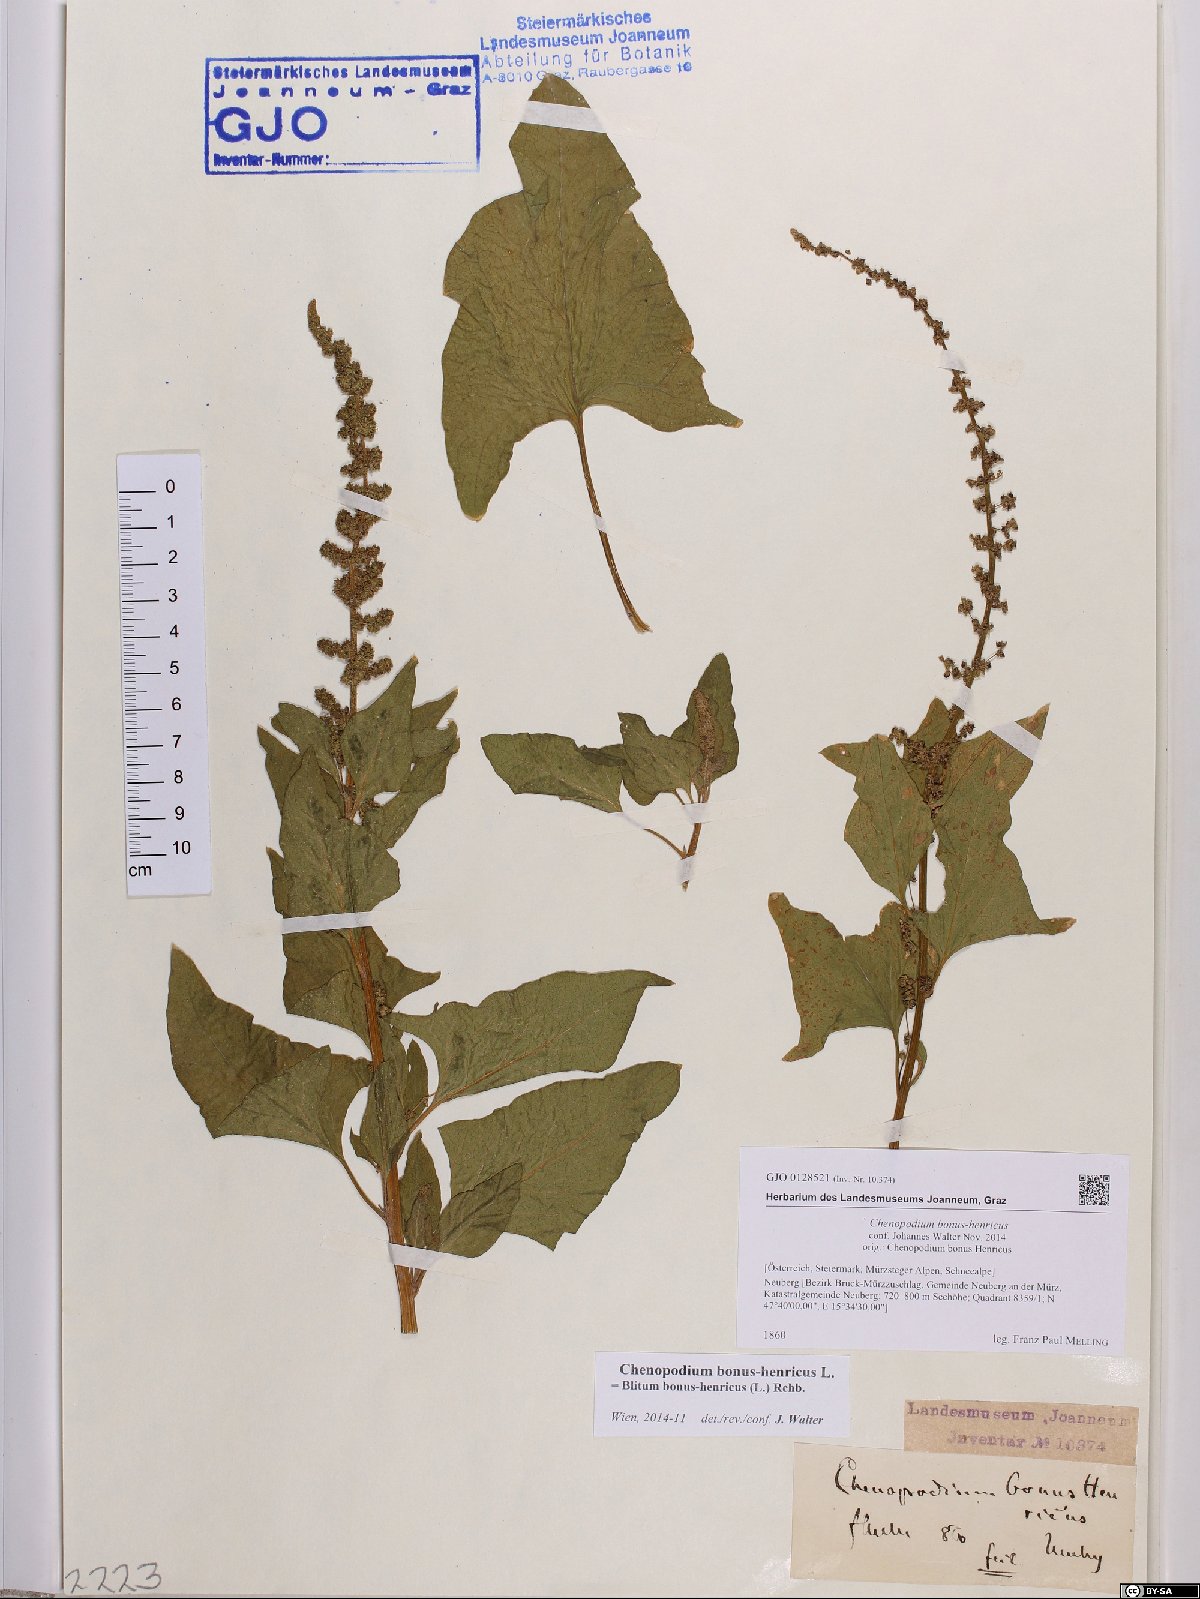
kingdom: Plantae
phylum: Tracheophyta
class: Magnoliopsida
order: Caryophyllales
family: Amaranthaceae
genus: Blitum
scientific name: Blitum bonus-henricus
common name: Good king henry
